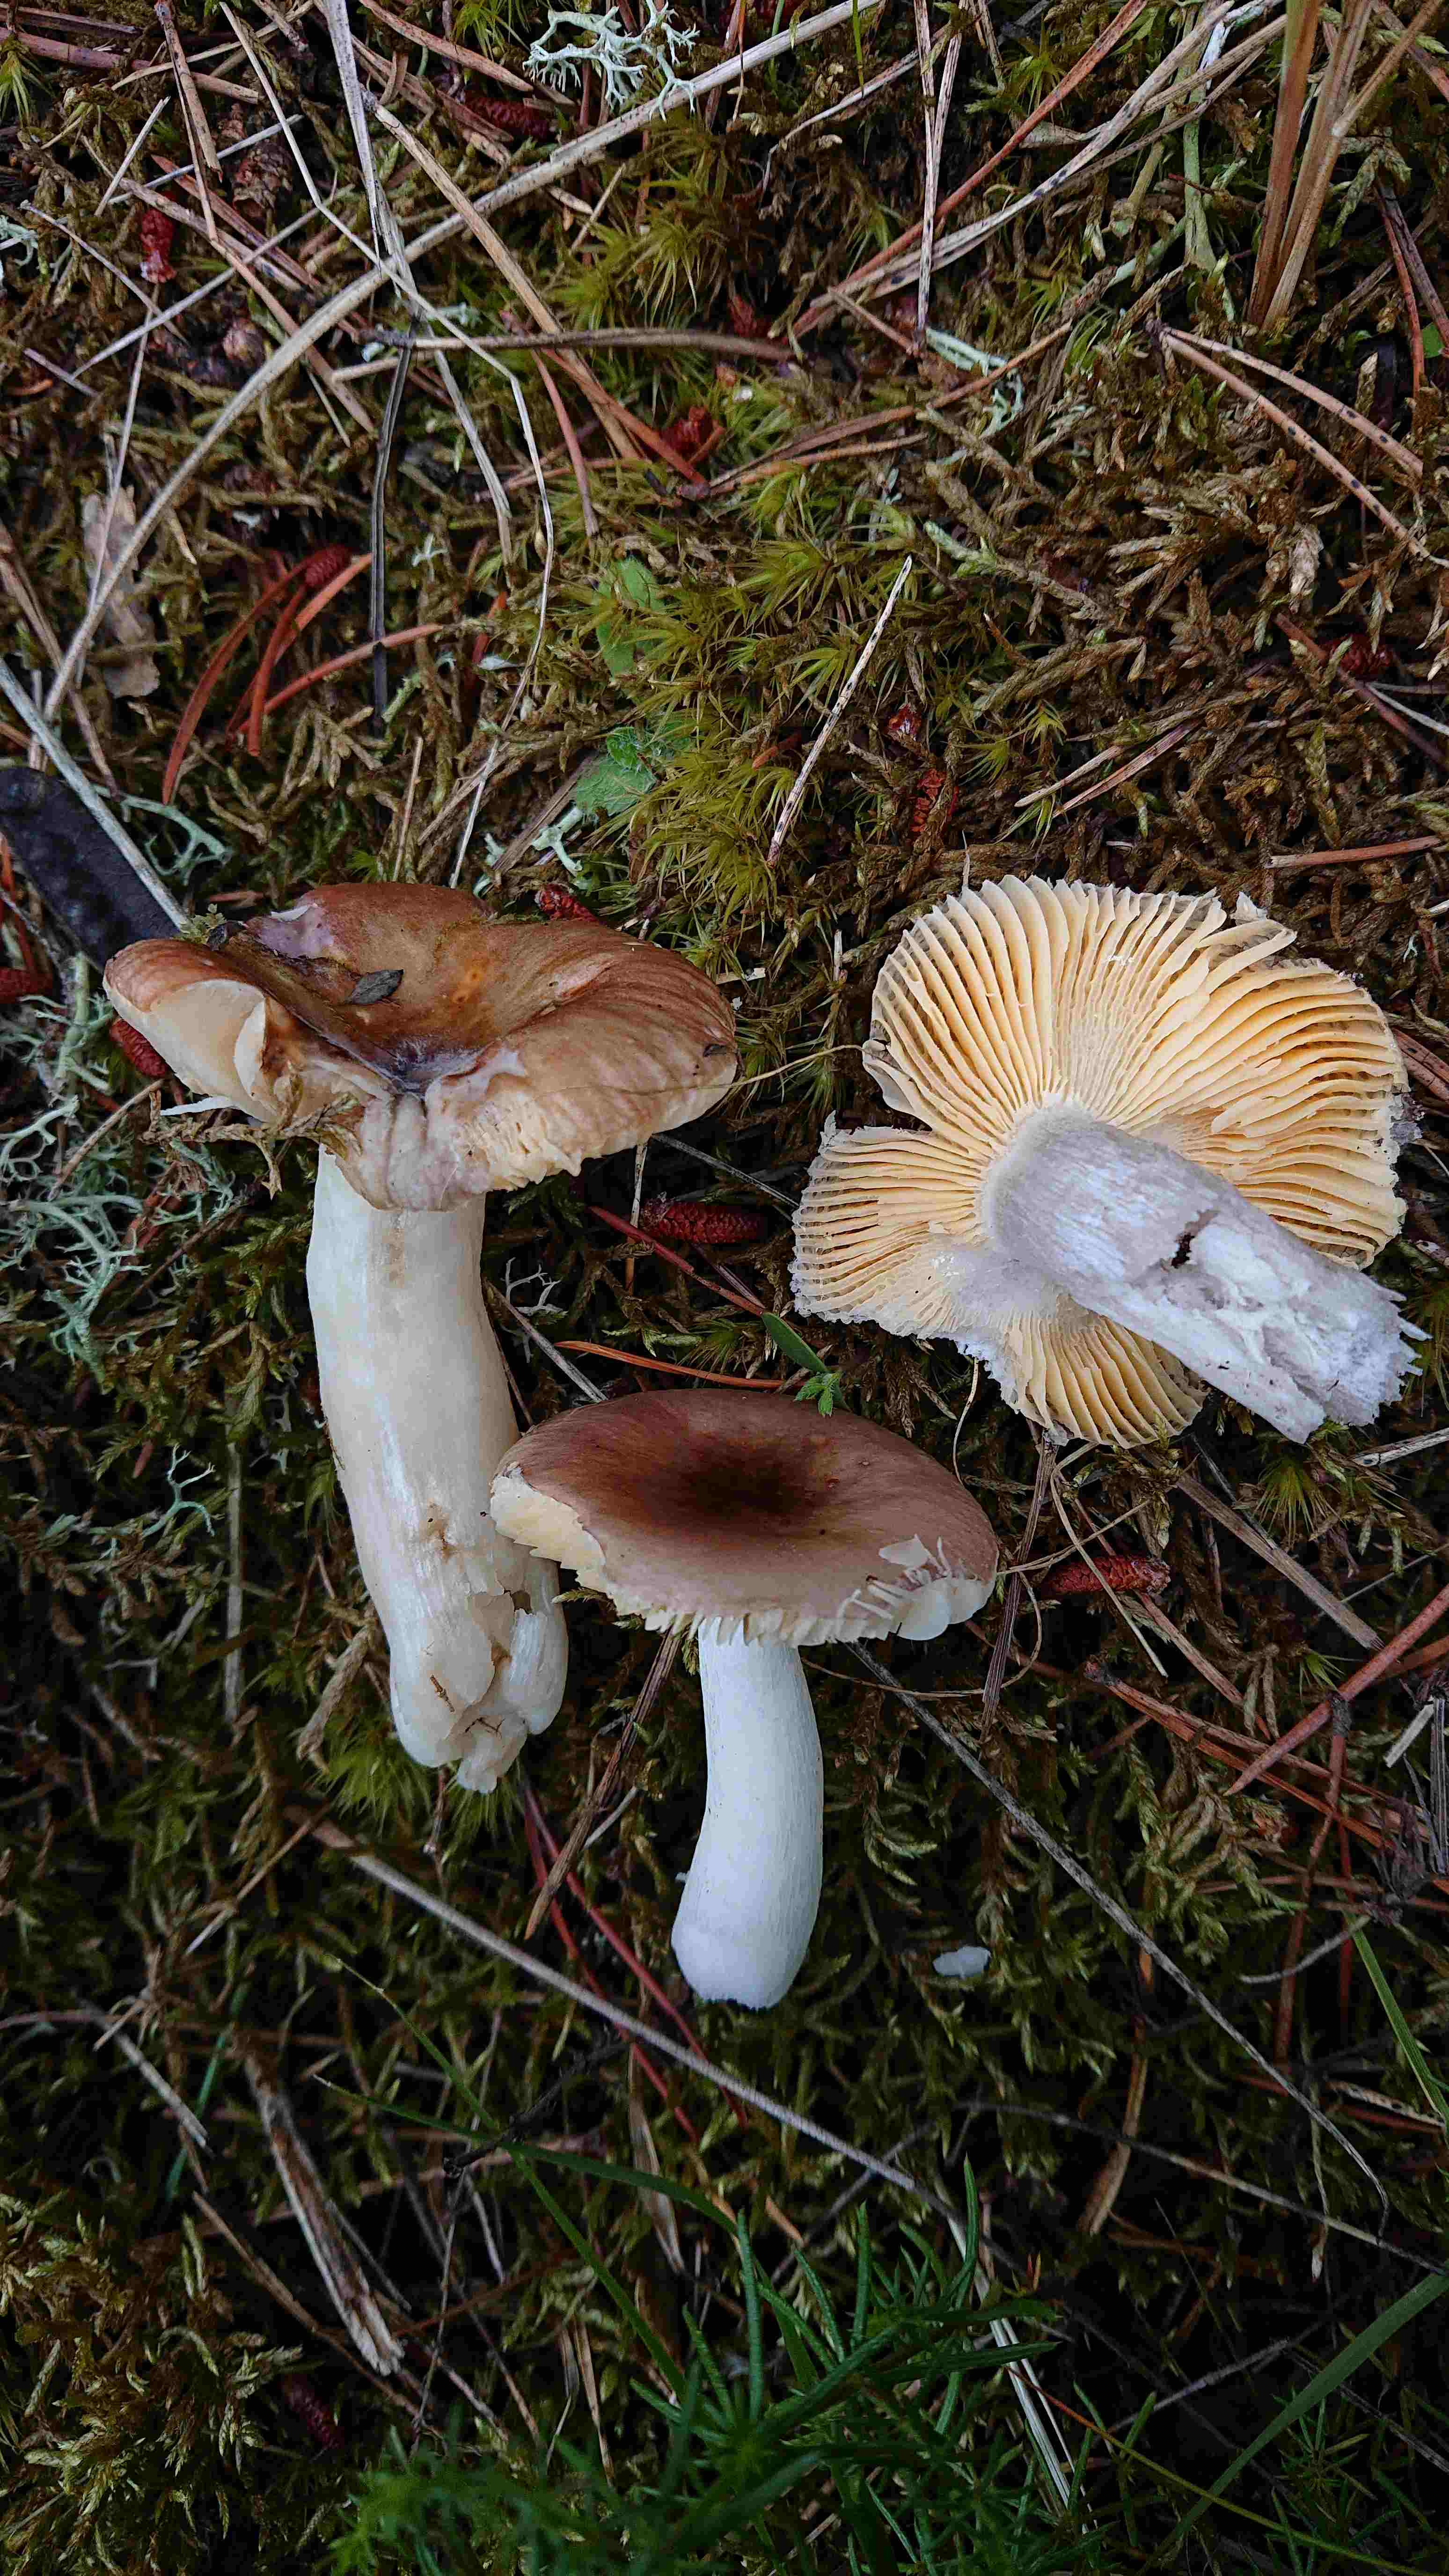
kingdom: Fungi
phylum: Basidiomycota
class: Agaricomycetes
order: Russulales
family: Russulaceae
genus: Russula
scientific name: Russula cessans
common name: fyrre-skørhat
